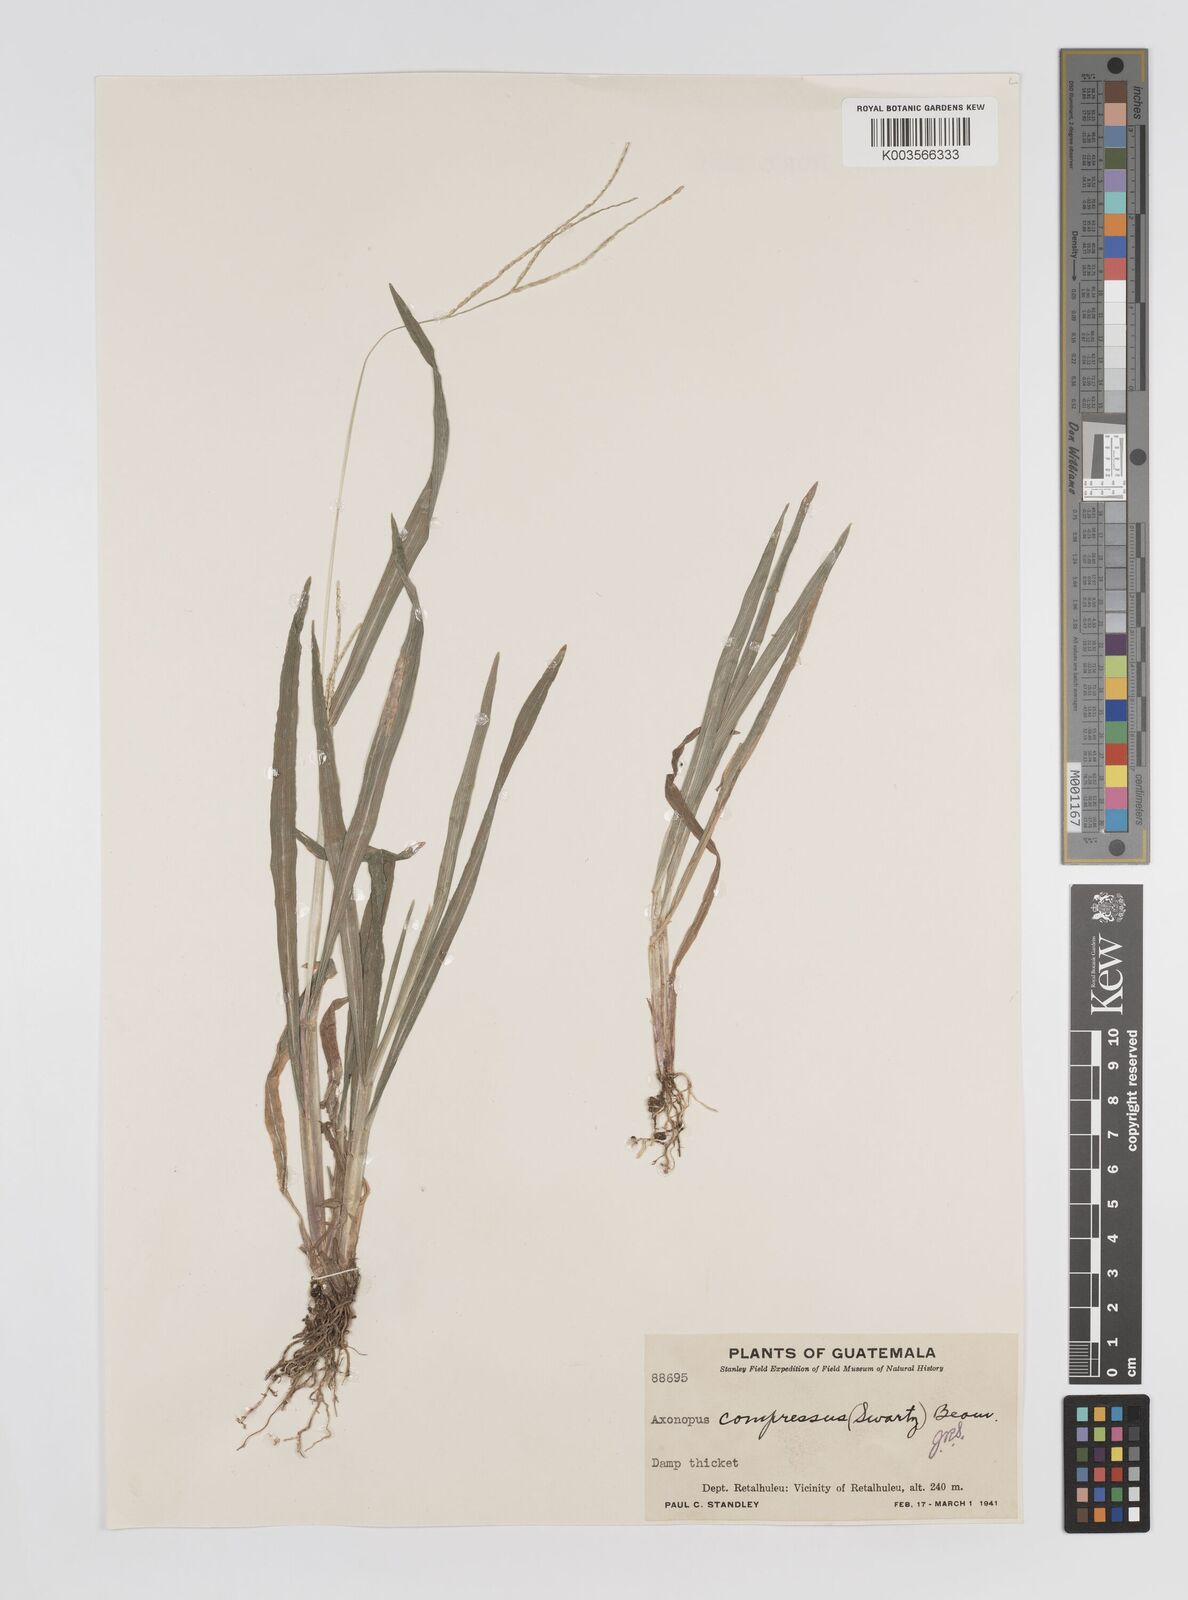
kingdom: Plantae
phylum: Tracheophyta
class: Liliopsida
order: Poales
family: Poaceae
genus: Axonopus
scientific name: Axonopus compressus
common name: American carpet grass
